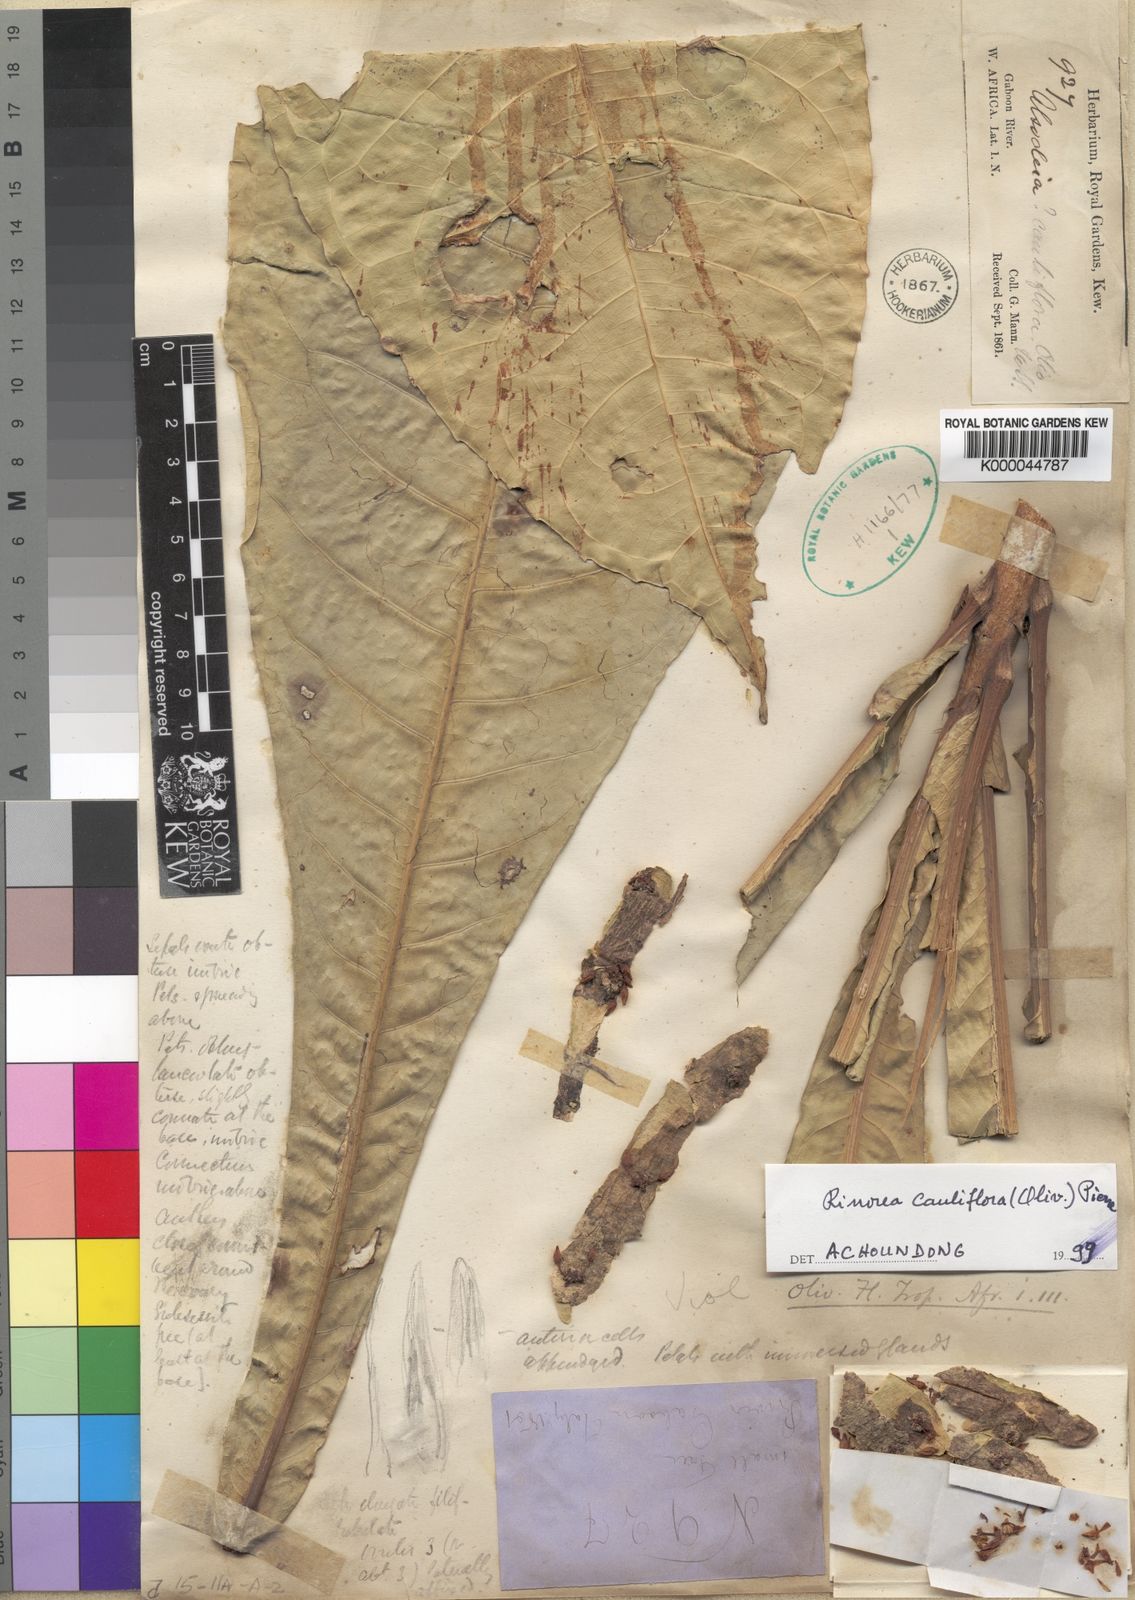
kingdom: Plantae
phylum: Tracheophyta
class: Magnoliopsida
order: Malpighiales
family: Violaceae
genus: Allexis
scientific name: Allexis cauliflora
